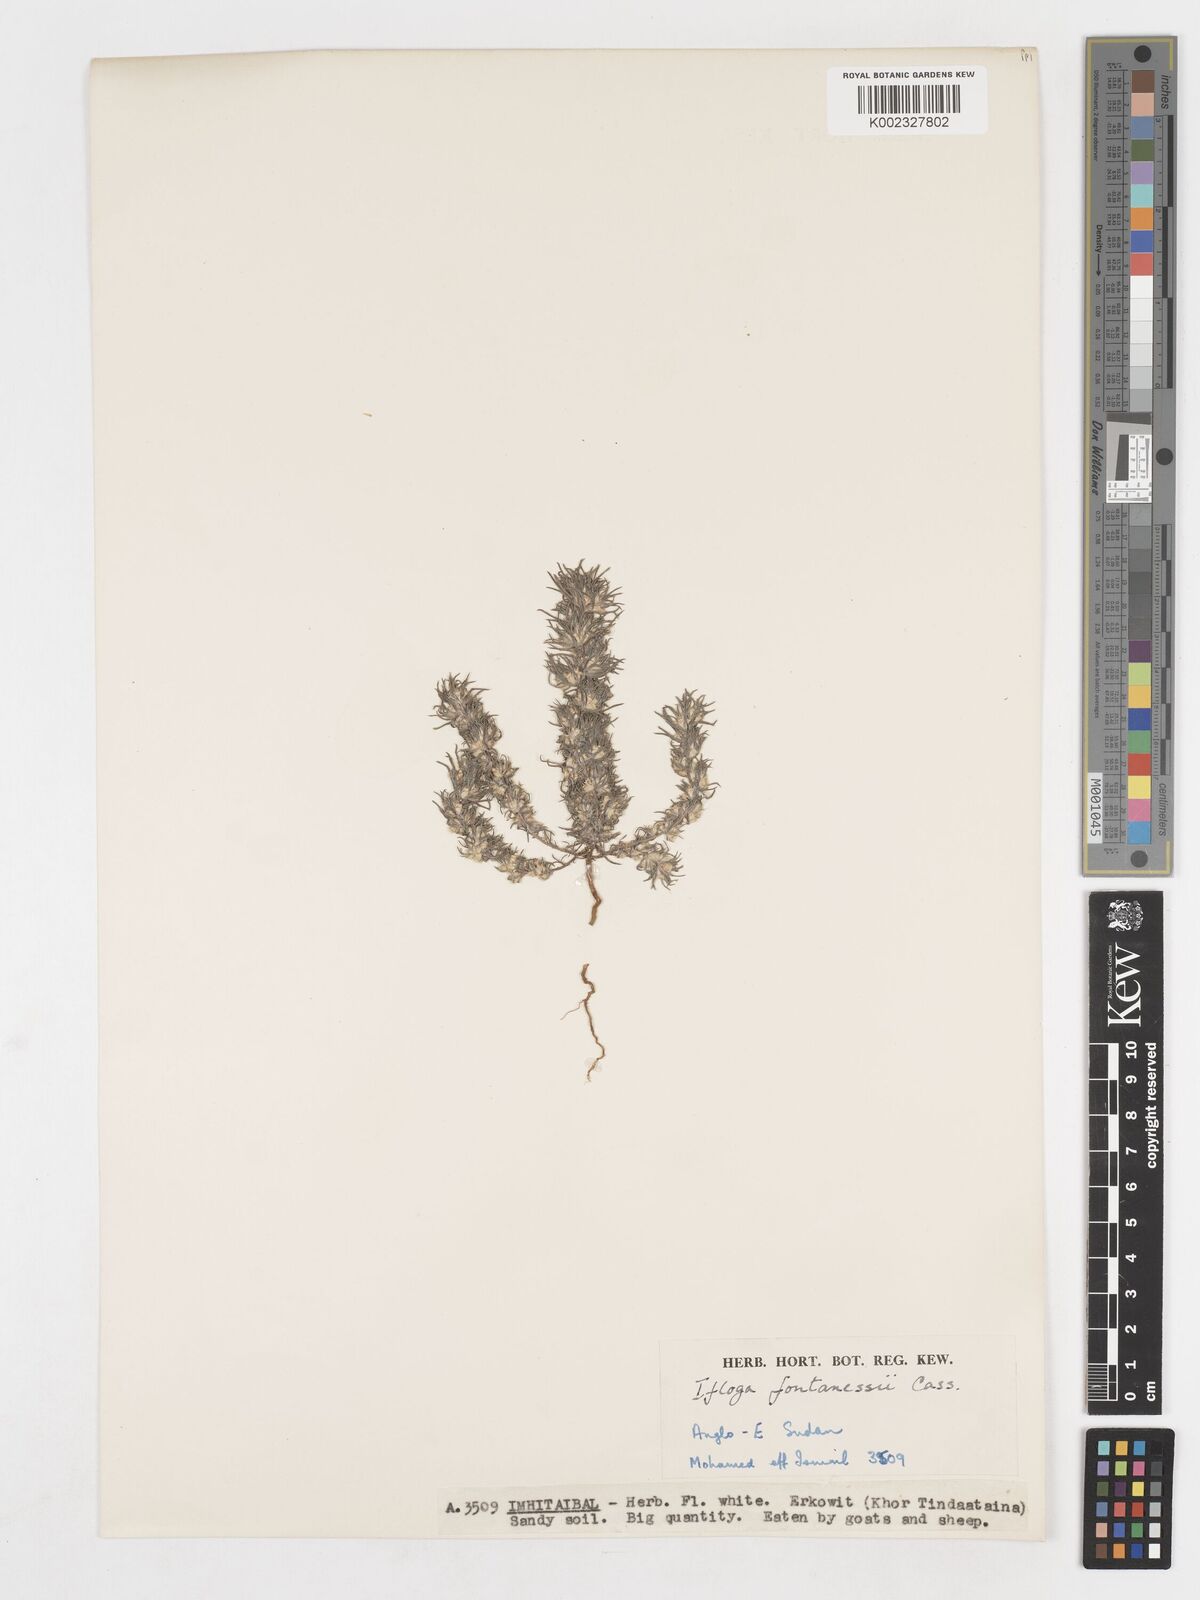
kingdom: Plantae
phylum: Tracheophyta
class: Magnoliopsida
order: Asterales
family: Asteraceae
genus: Ifloga
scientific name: Ifloga spicata
